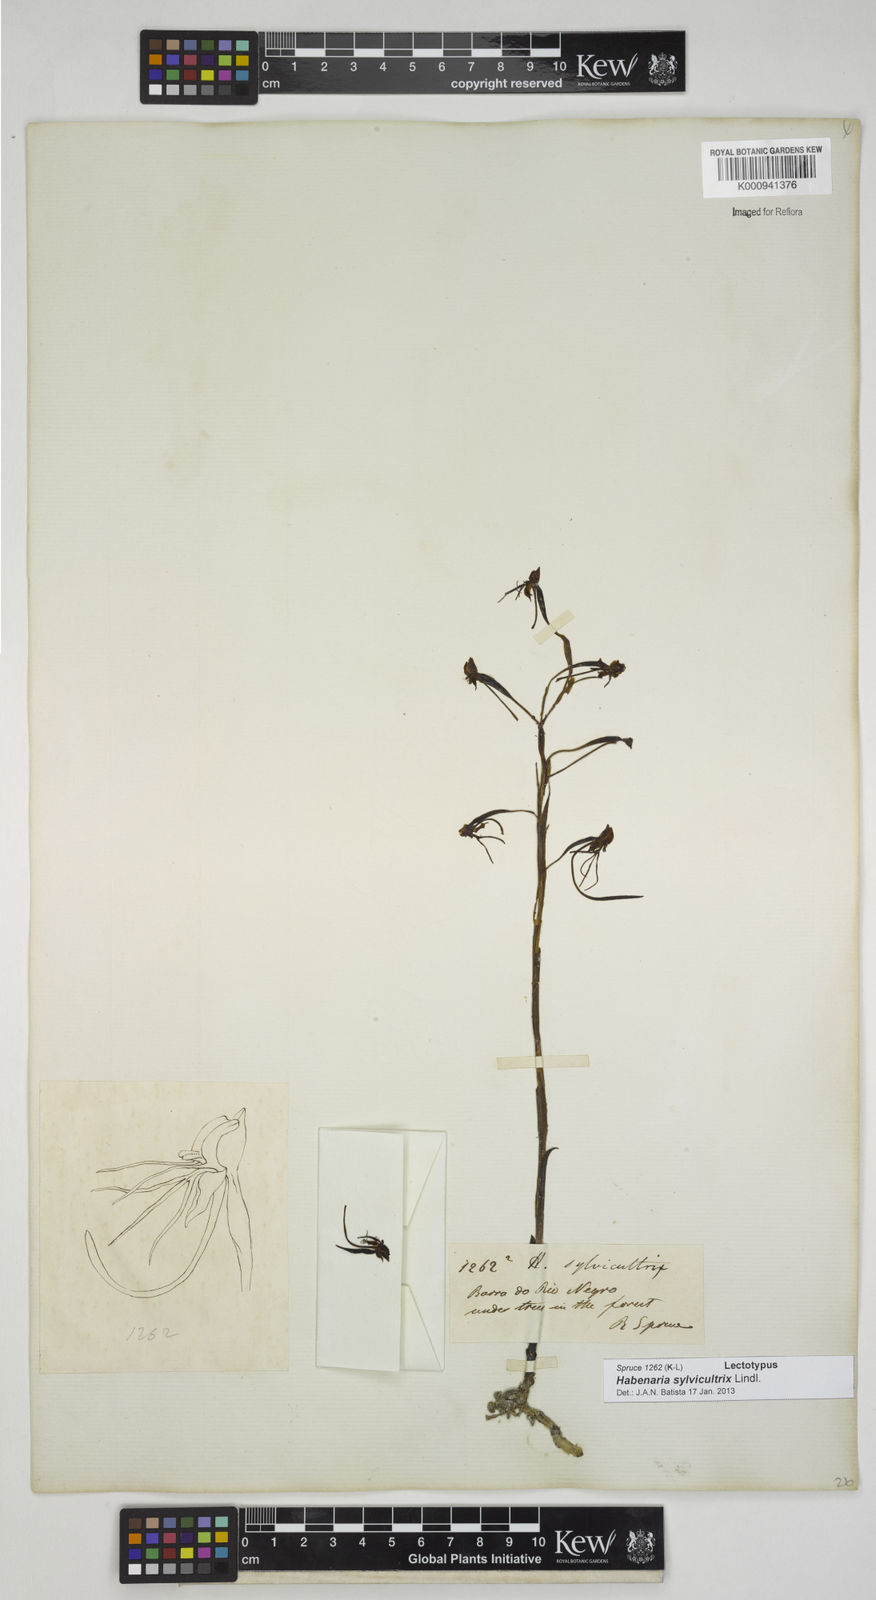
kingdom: Plantae
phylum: Tracheophyta
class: Liliopsida
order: Asparagales
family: Orchidaceae
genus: Habenaria
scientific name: Habenaria dusenii
